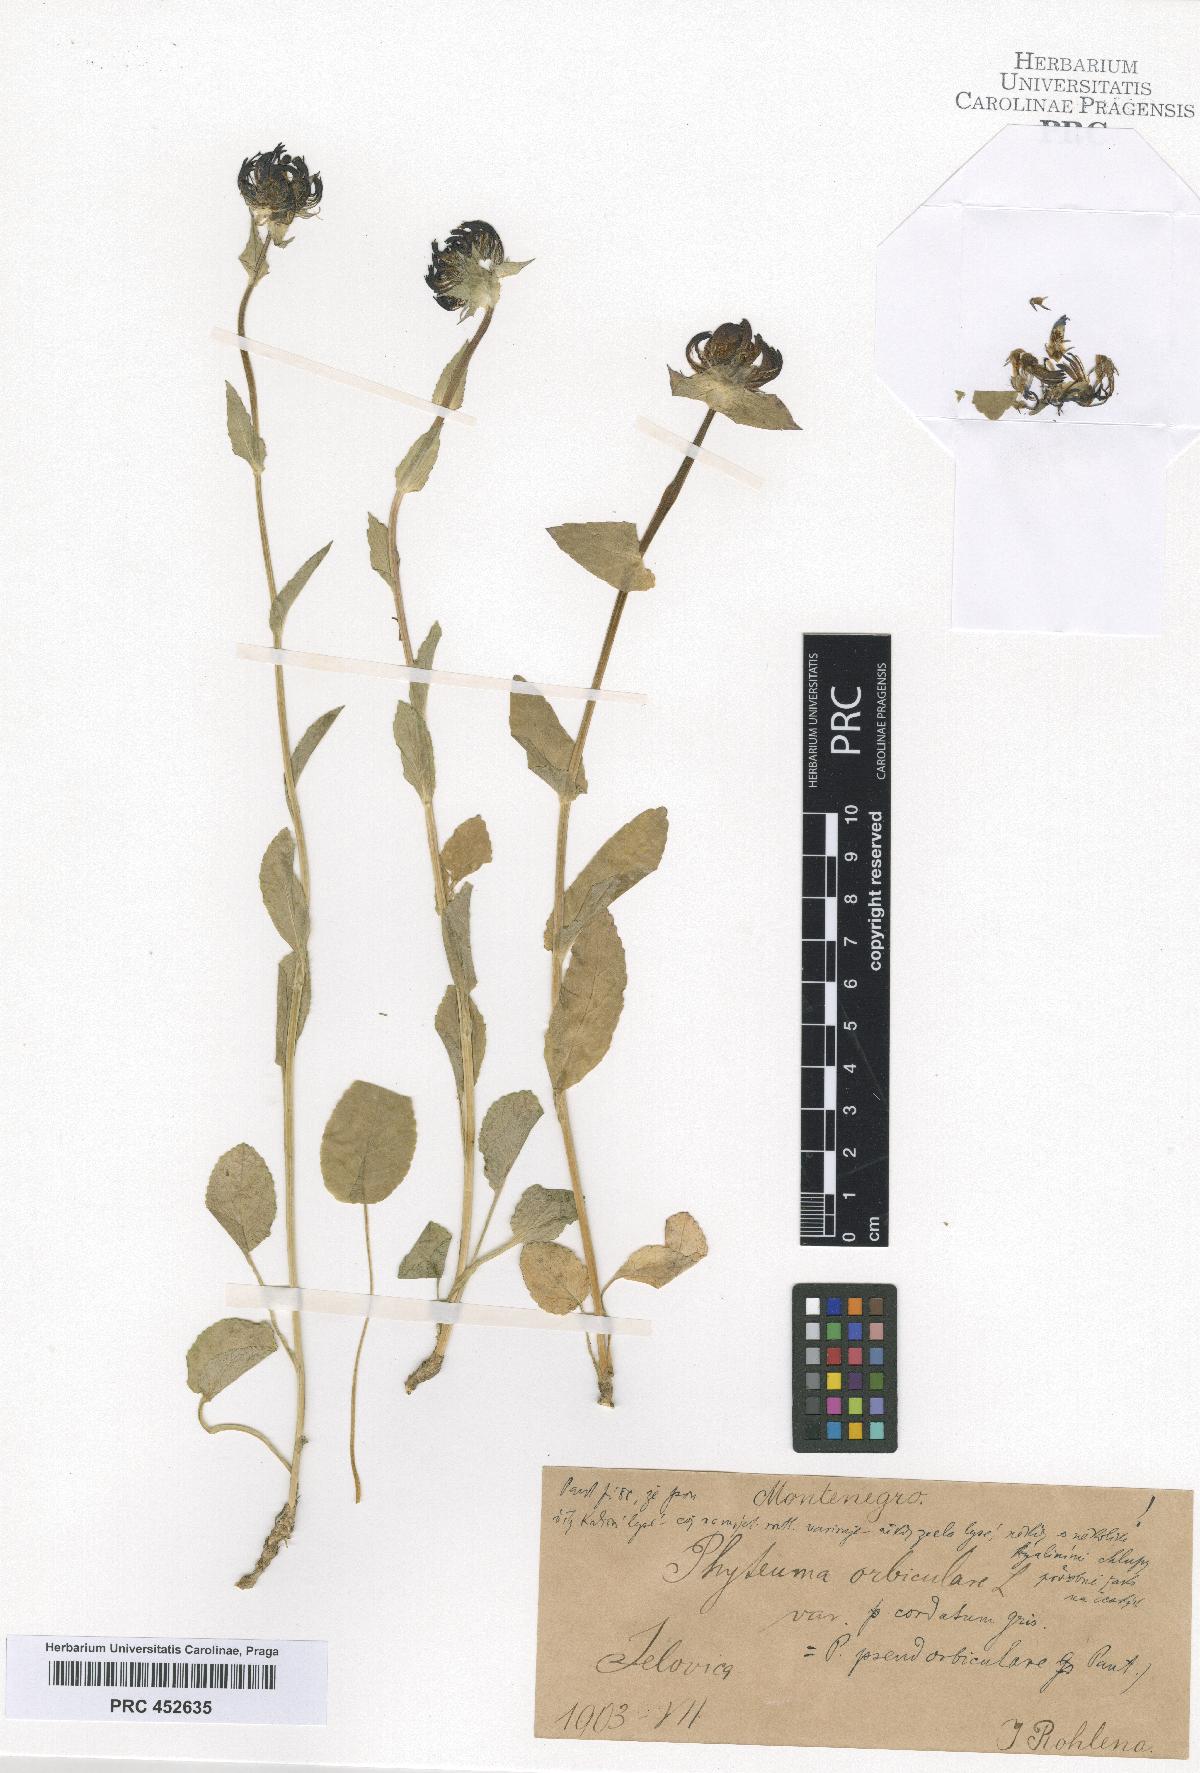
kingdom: Plantae
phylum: Tracheophyta
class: Magnoliopsida
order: Asterales
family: Campanulaceae
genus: Phyteuma
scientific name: Phyteuma orbiculare
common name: Round-headed rampion
